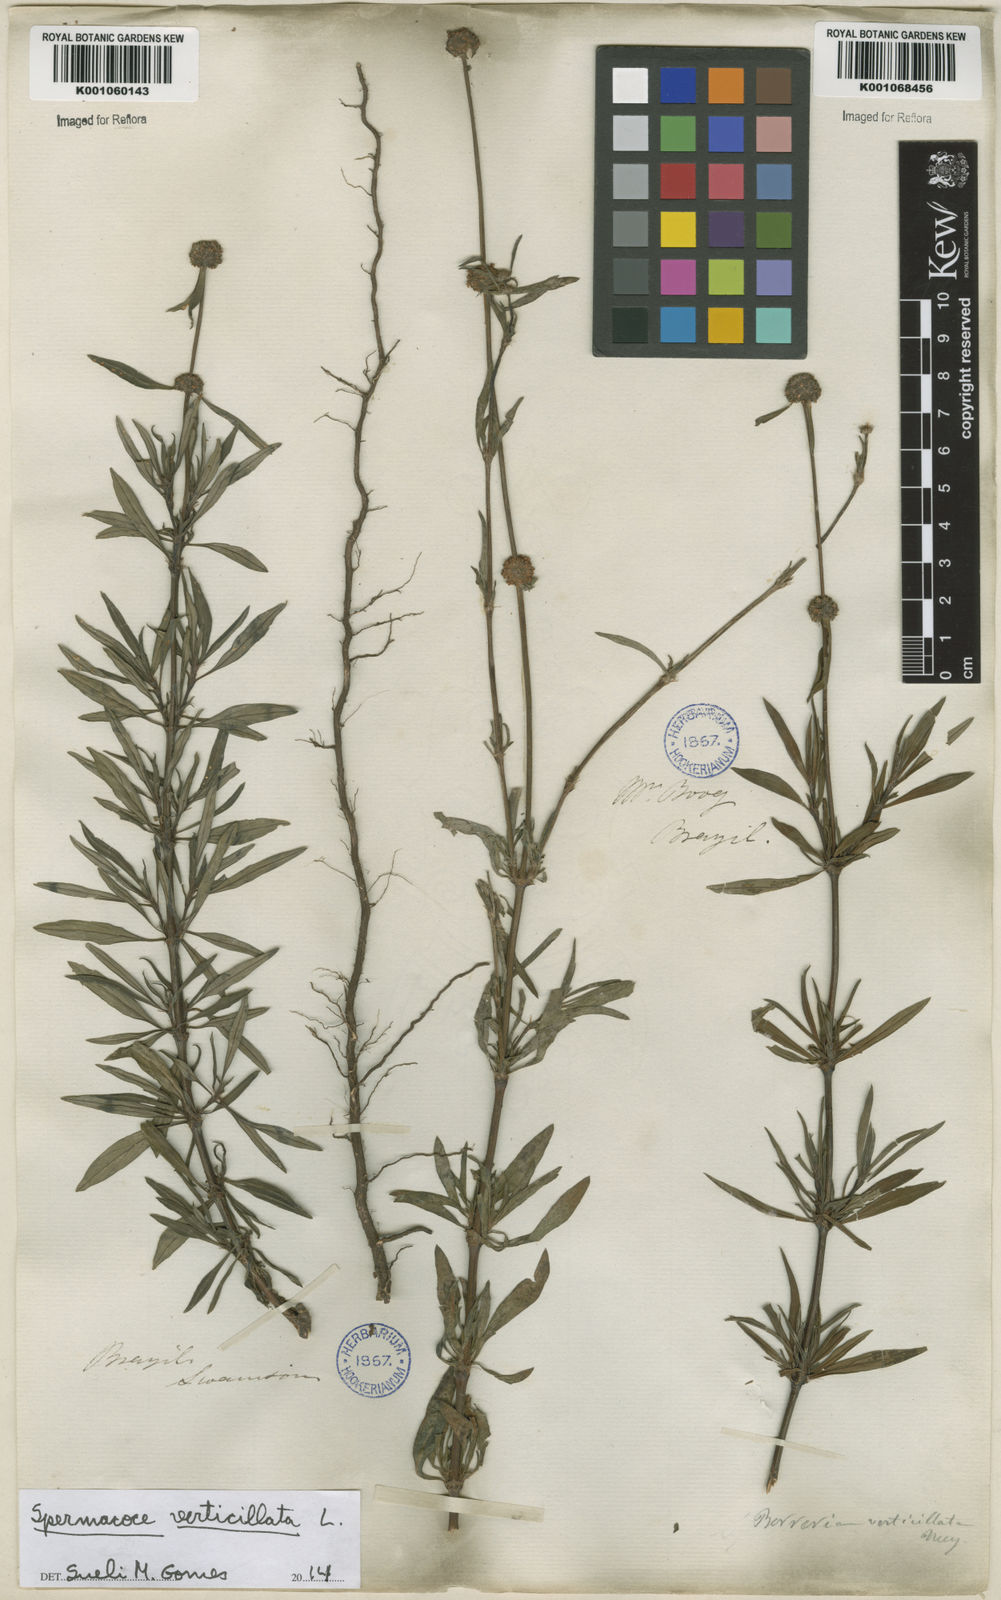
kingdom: Plantae
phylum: Tracheophyta
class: Magnoliopsida
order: Gentianales
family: Rubiaceae
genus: Spermacoce
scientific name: Spermacoce verticillata
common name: Shrubby false buttonweed
